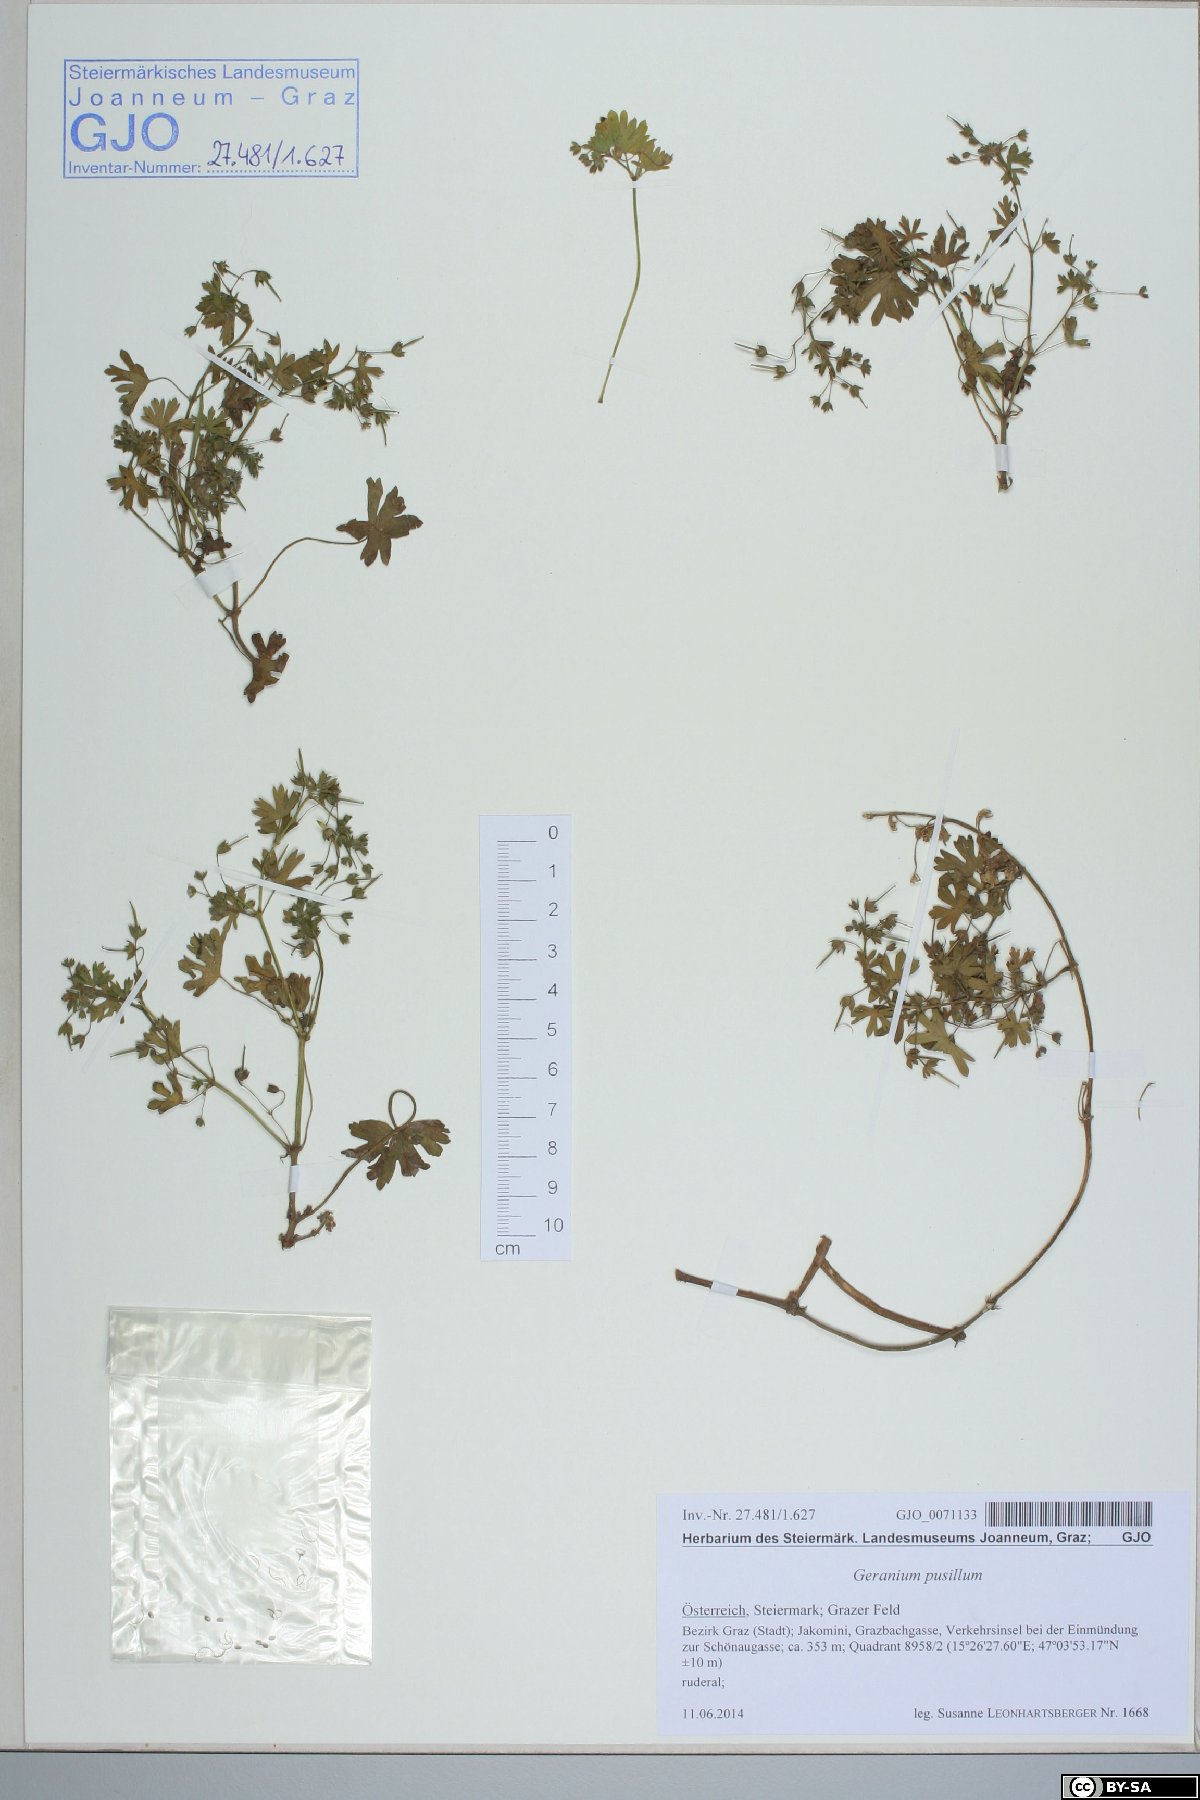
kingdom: Plantae
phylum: Tracheophyta
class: Magnoliopsida
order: Geraniales
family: Geraniaceae
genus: Geranium
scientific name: Geranium pusillum
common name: Small geranium
